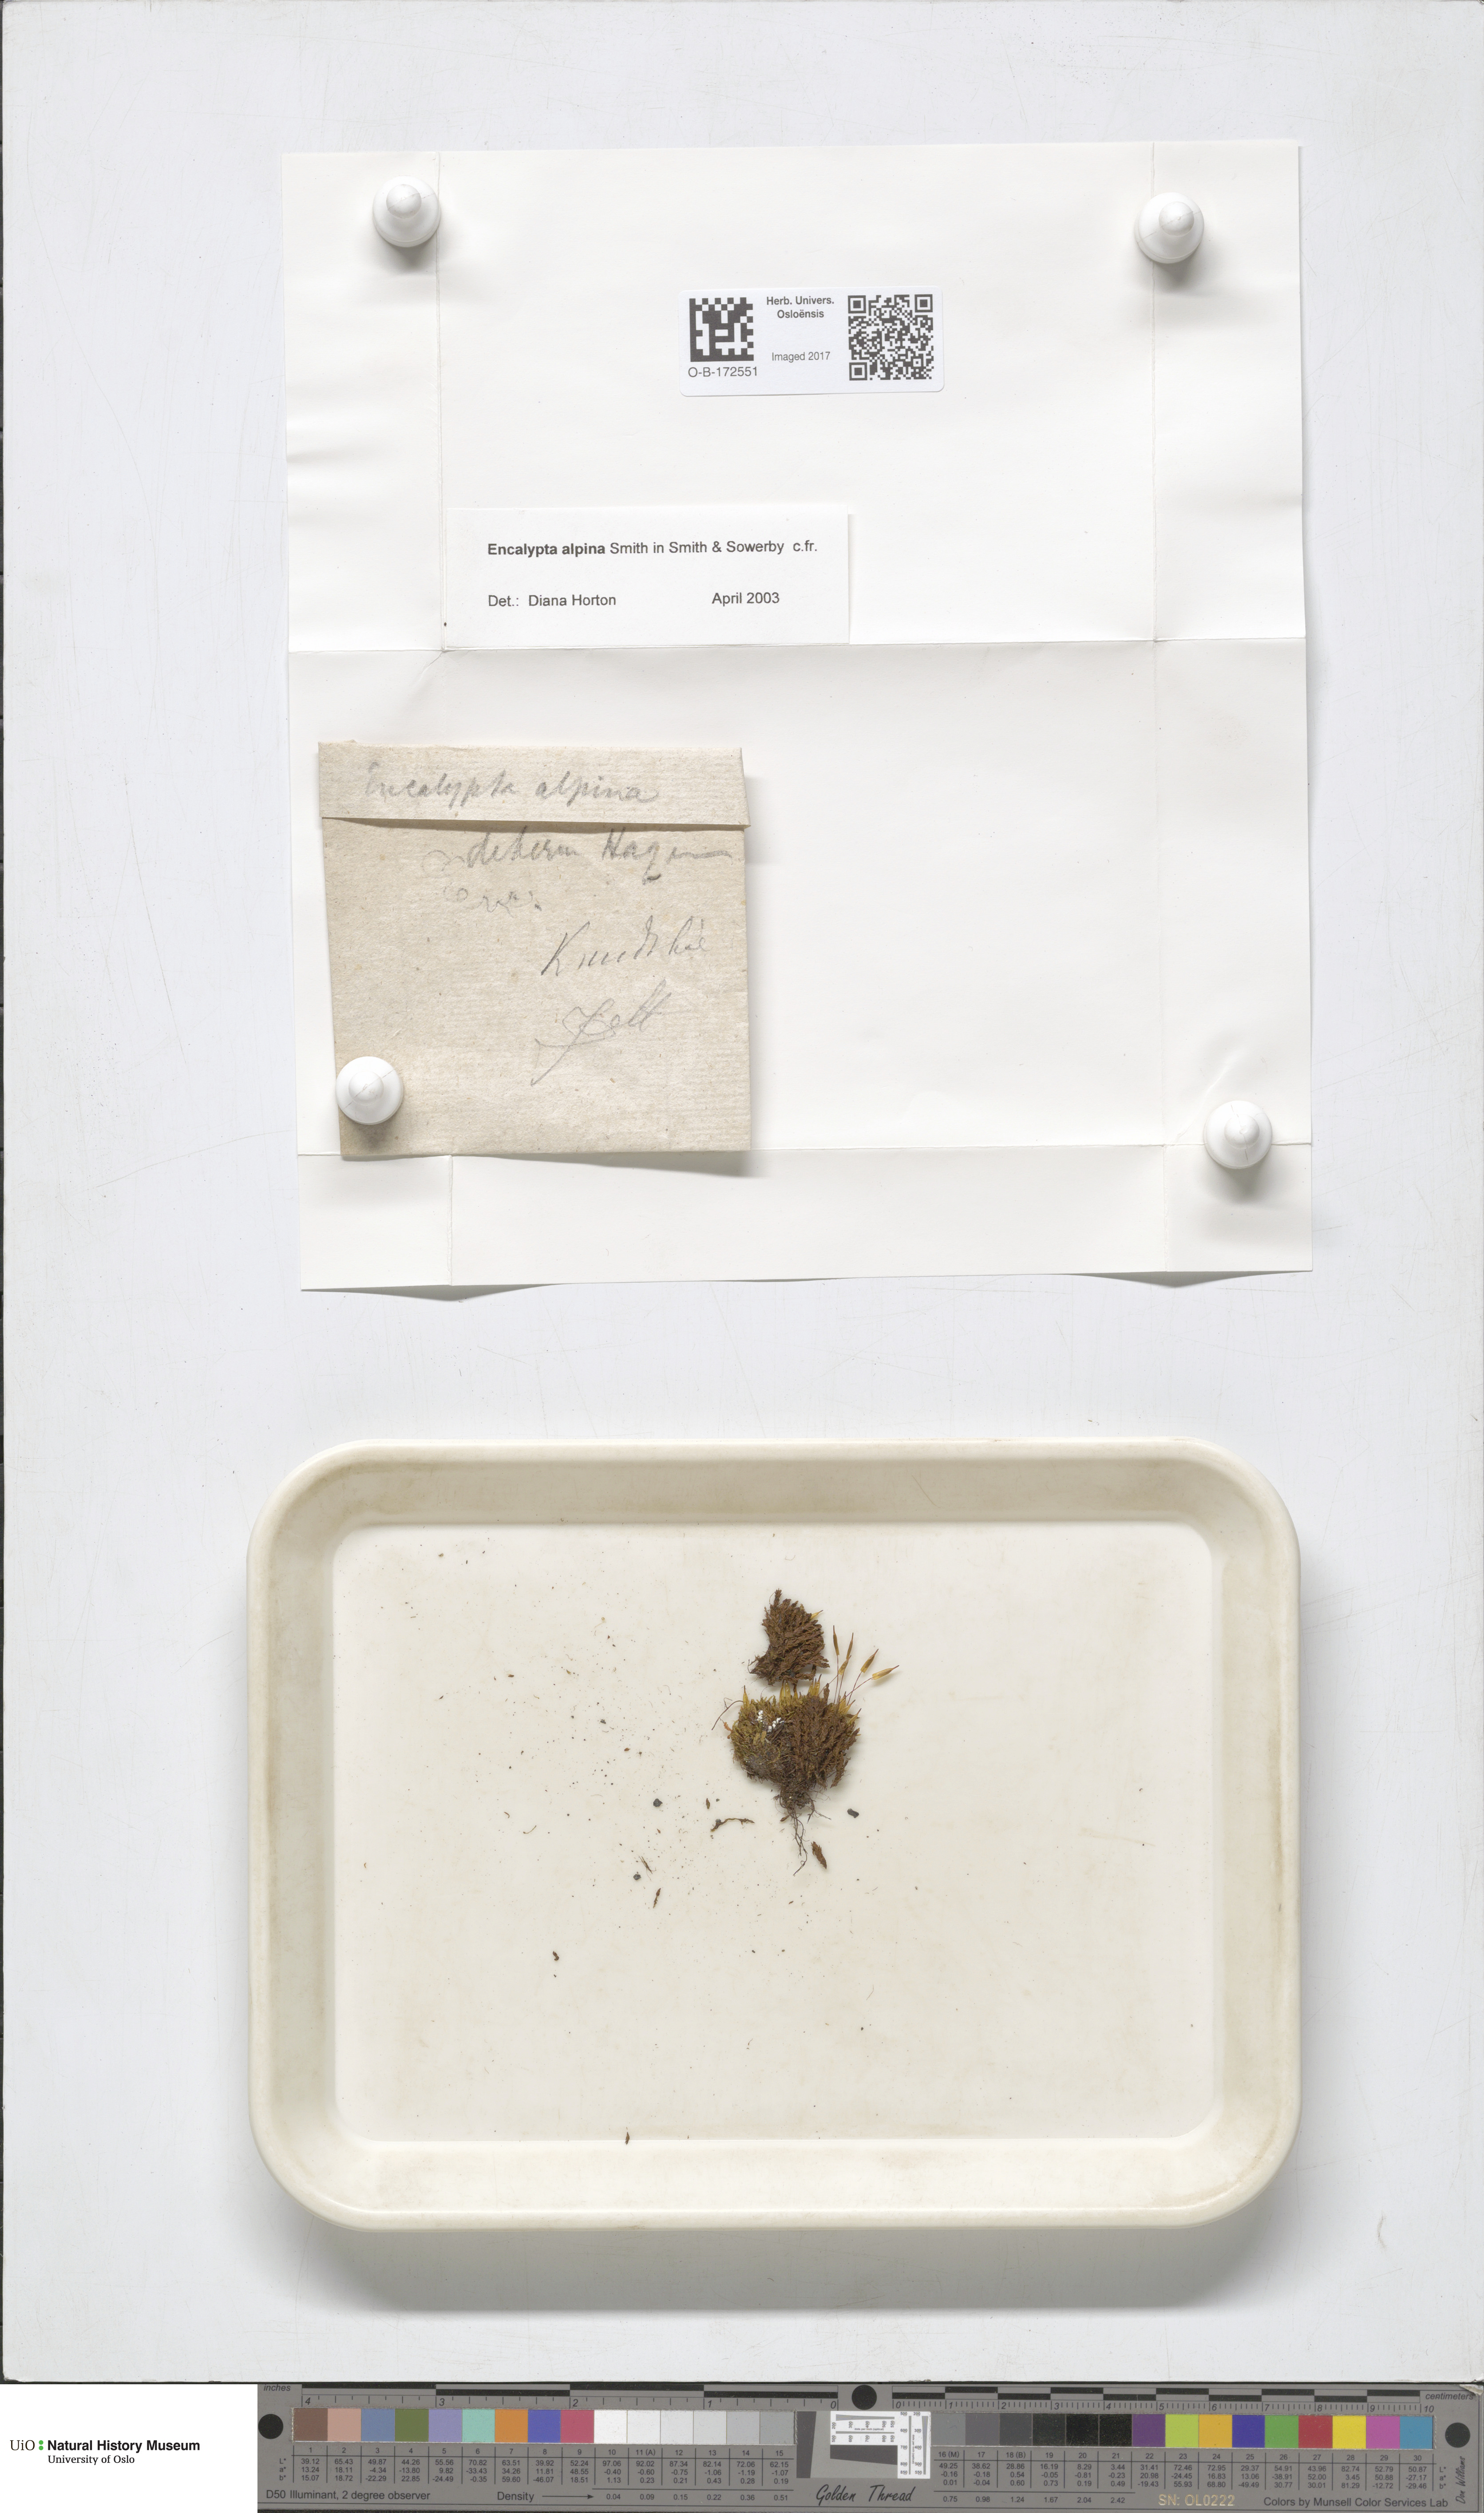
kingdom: Plantae
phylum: Bryophyta
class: Bryopsida
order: Encalyptales
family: Encalyptaceae
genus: Encalypta
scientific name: Encalypta alpina
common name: Alpine extinguisher-moss
